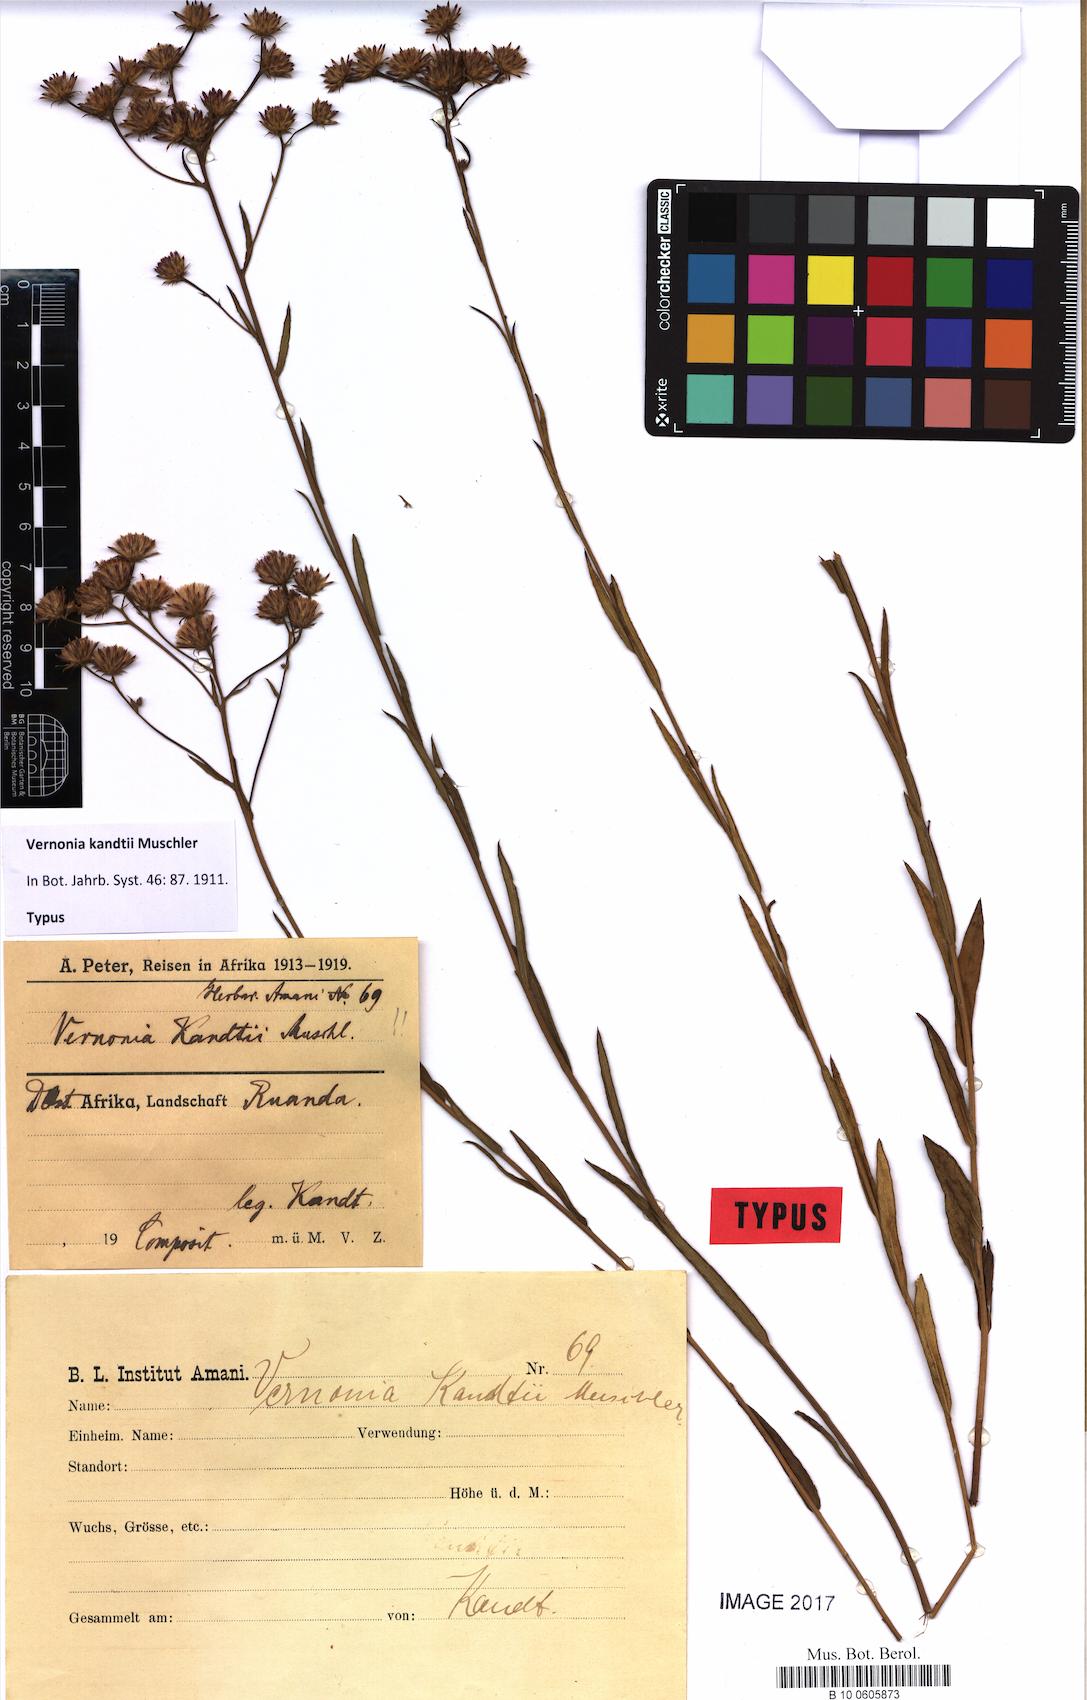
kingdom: Plantae
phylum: Tracheophyta
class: Magnoliopsida
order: Asterales
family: Asteraceae
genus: Vernonia
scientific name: Vernonia kandtii
